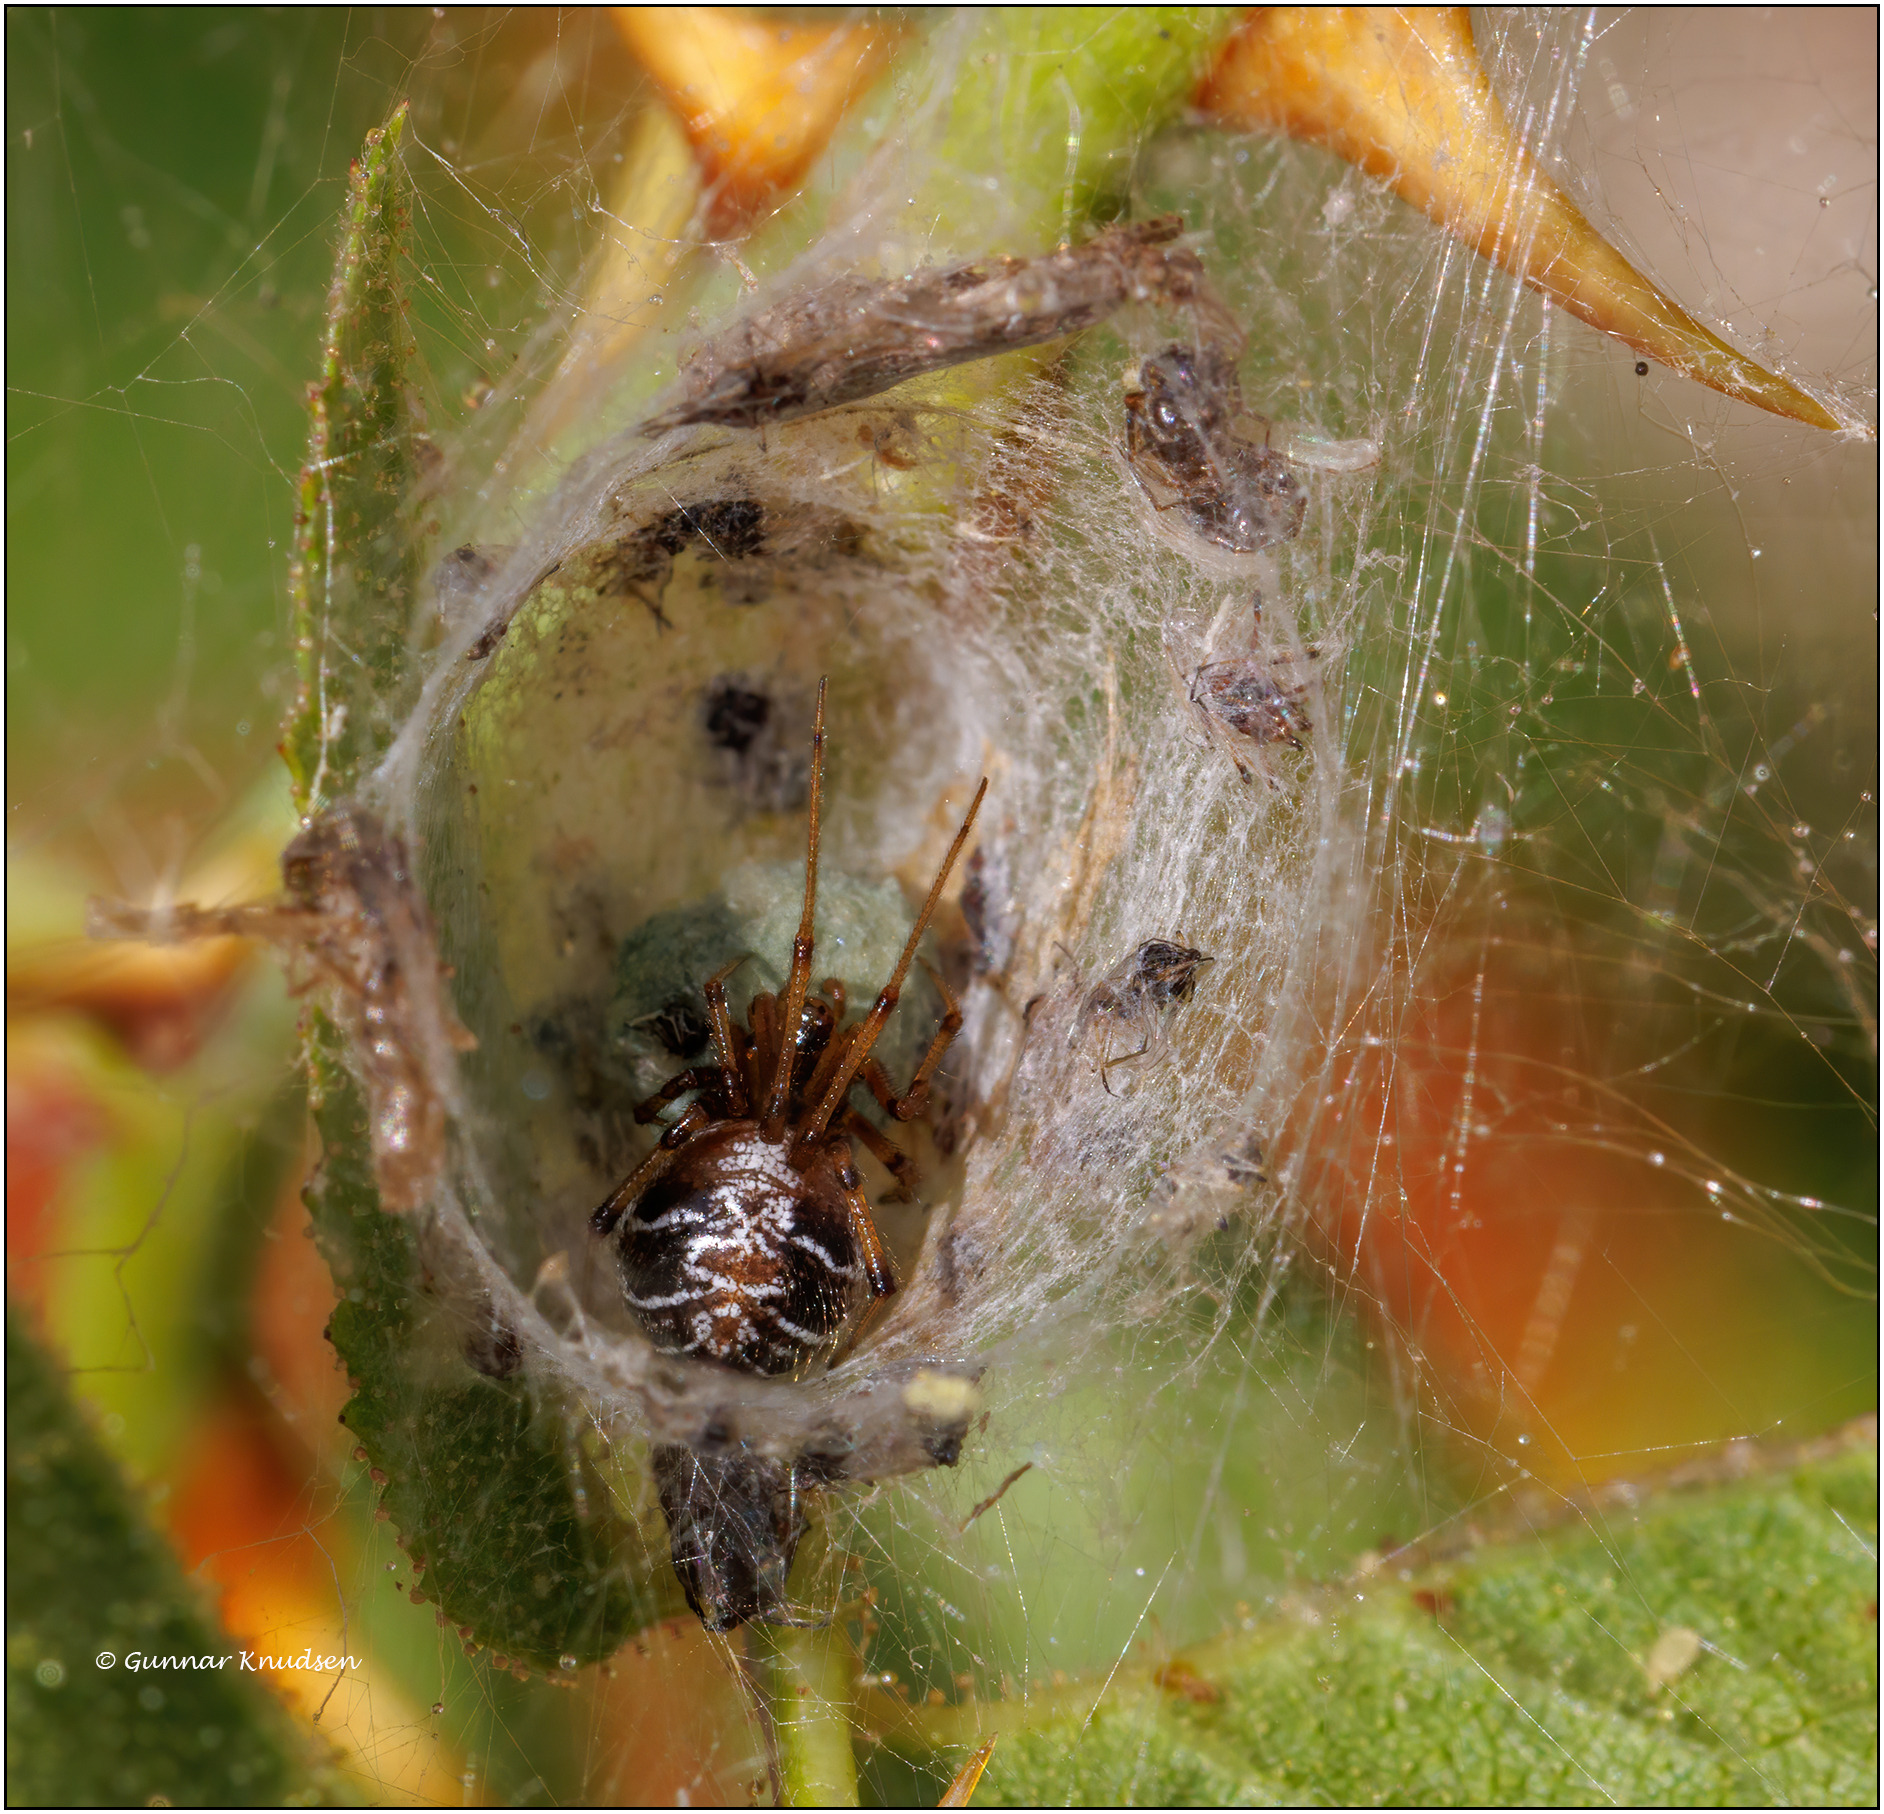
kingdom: Animalia
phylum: Arthropoda
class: Arachnida
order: Araneae
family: Theridiidae
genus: Phylloneta
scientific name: Phylloneta
